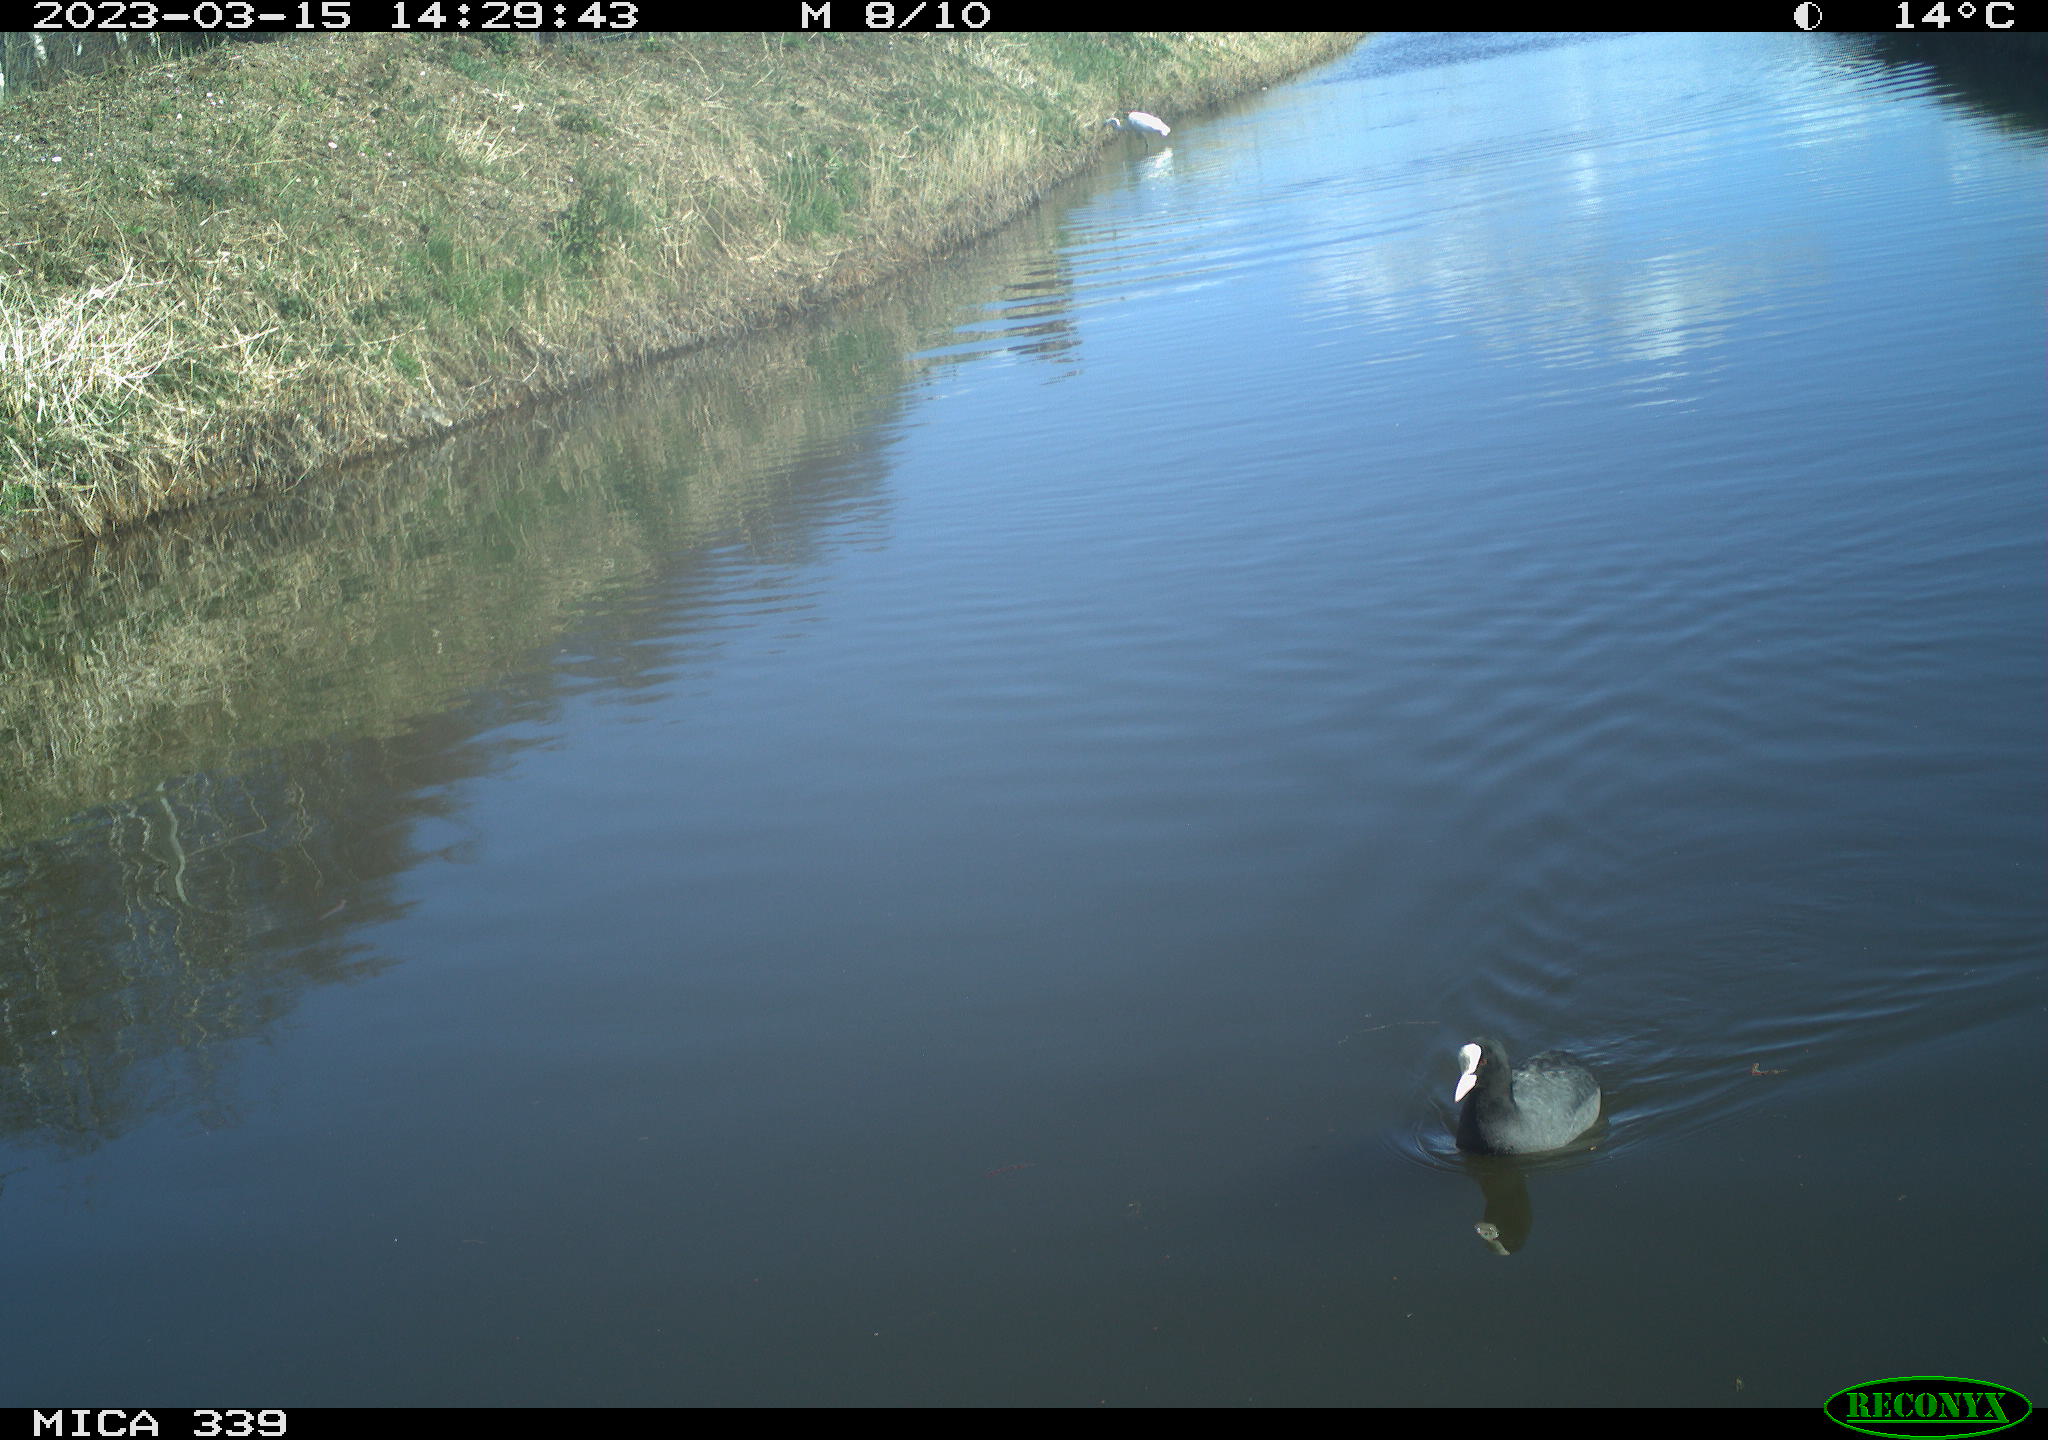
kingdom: Animalia
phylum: Chordata
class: Aves
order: Pelecaniformes
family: Ardeidae
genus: Ardea
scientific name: Ardea
